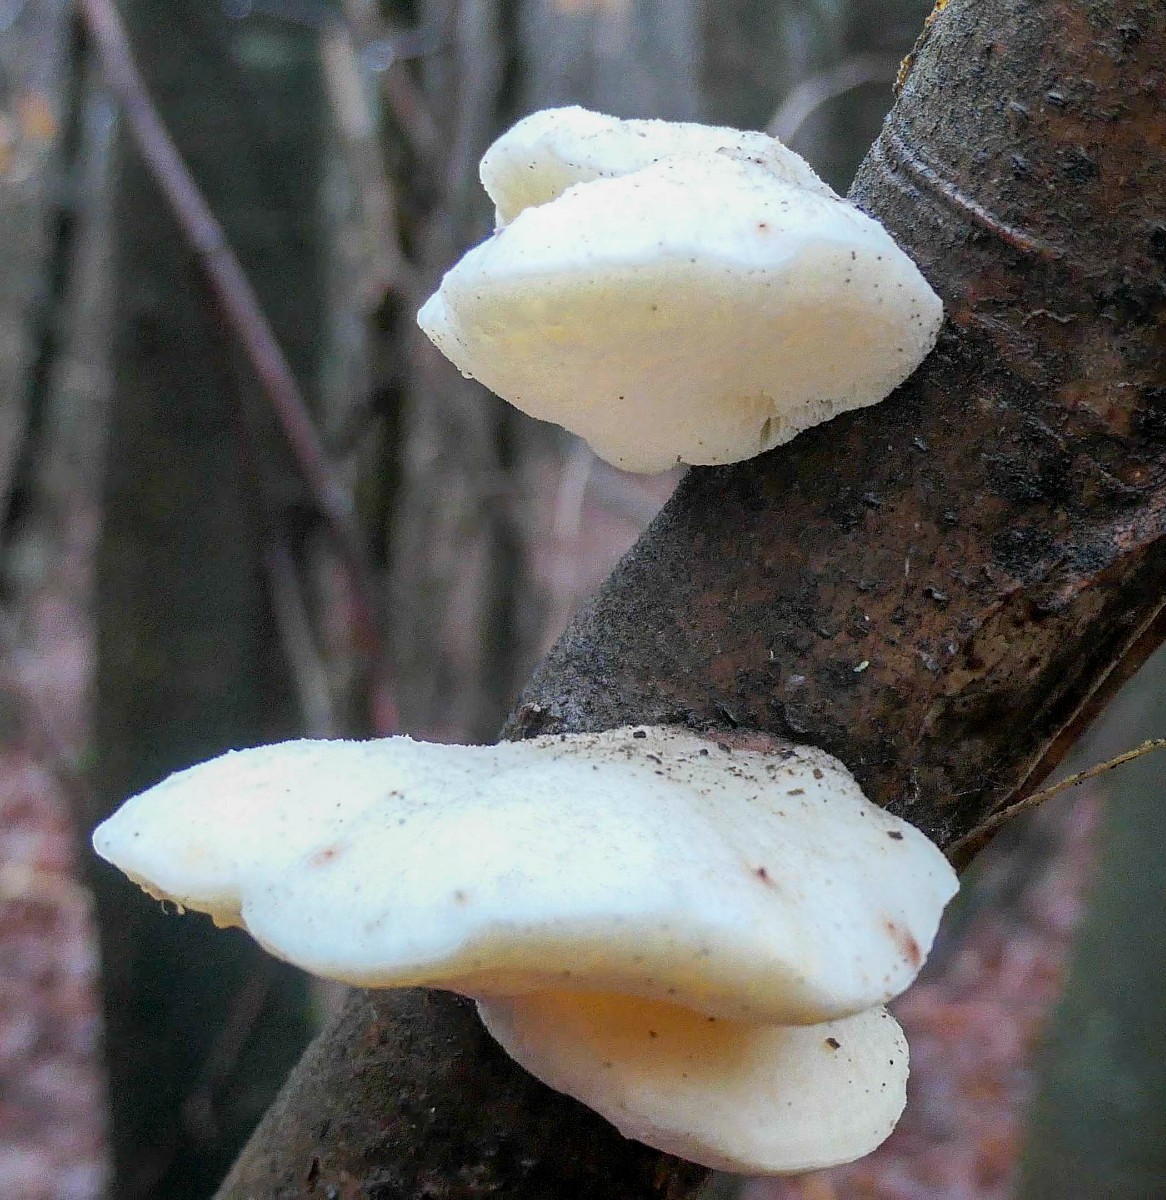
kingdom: Fungi
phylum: Basidiomycota
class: Agaricomycetes
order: Polyporales
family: Incrustoporiaceae
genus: Tyromyces
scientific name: Tyromyces chioneus
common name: stor blødporesvamp
